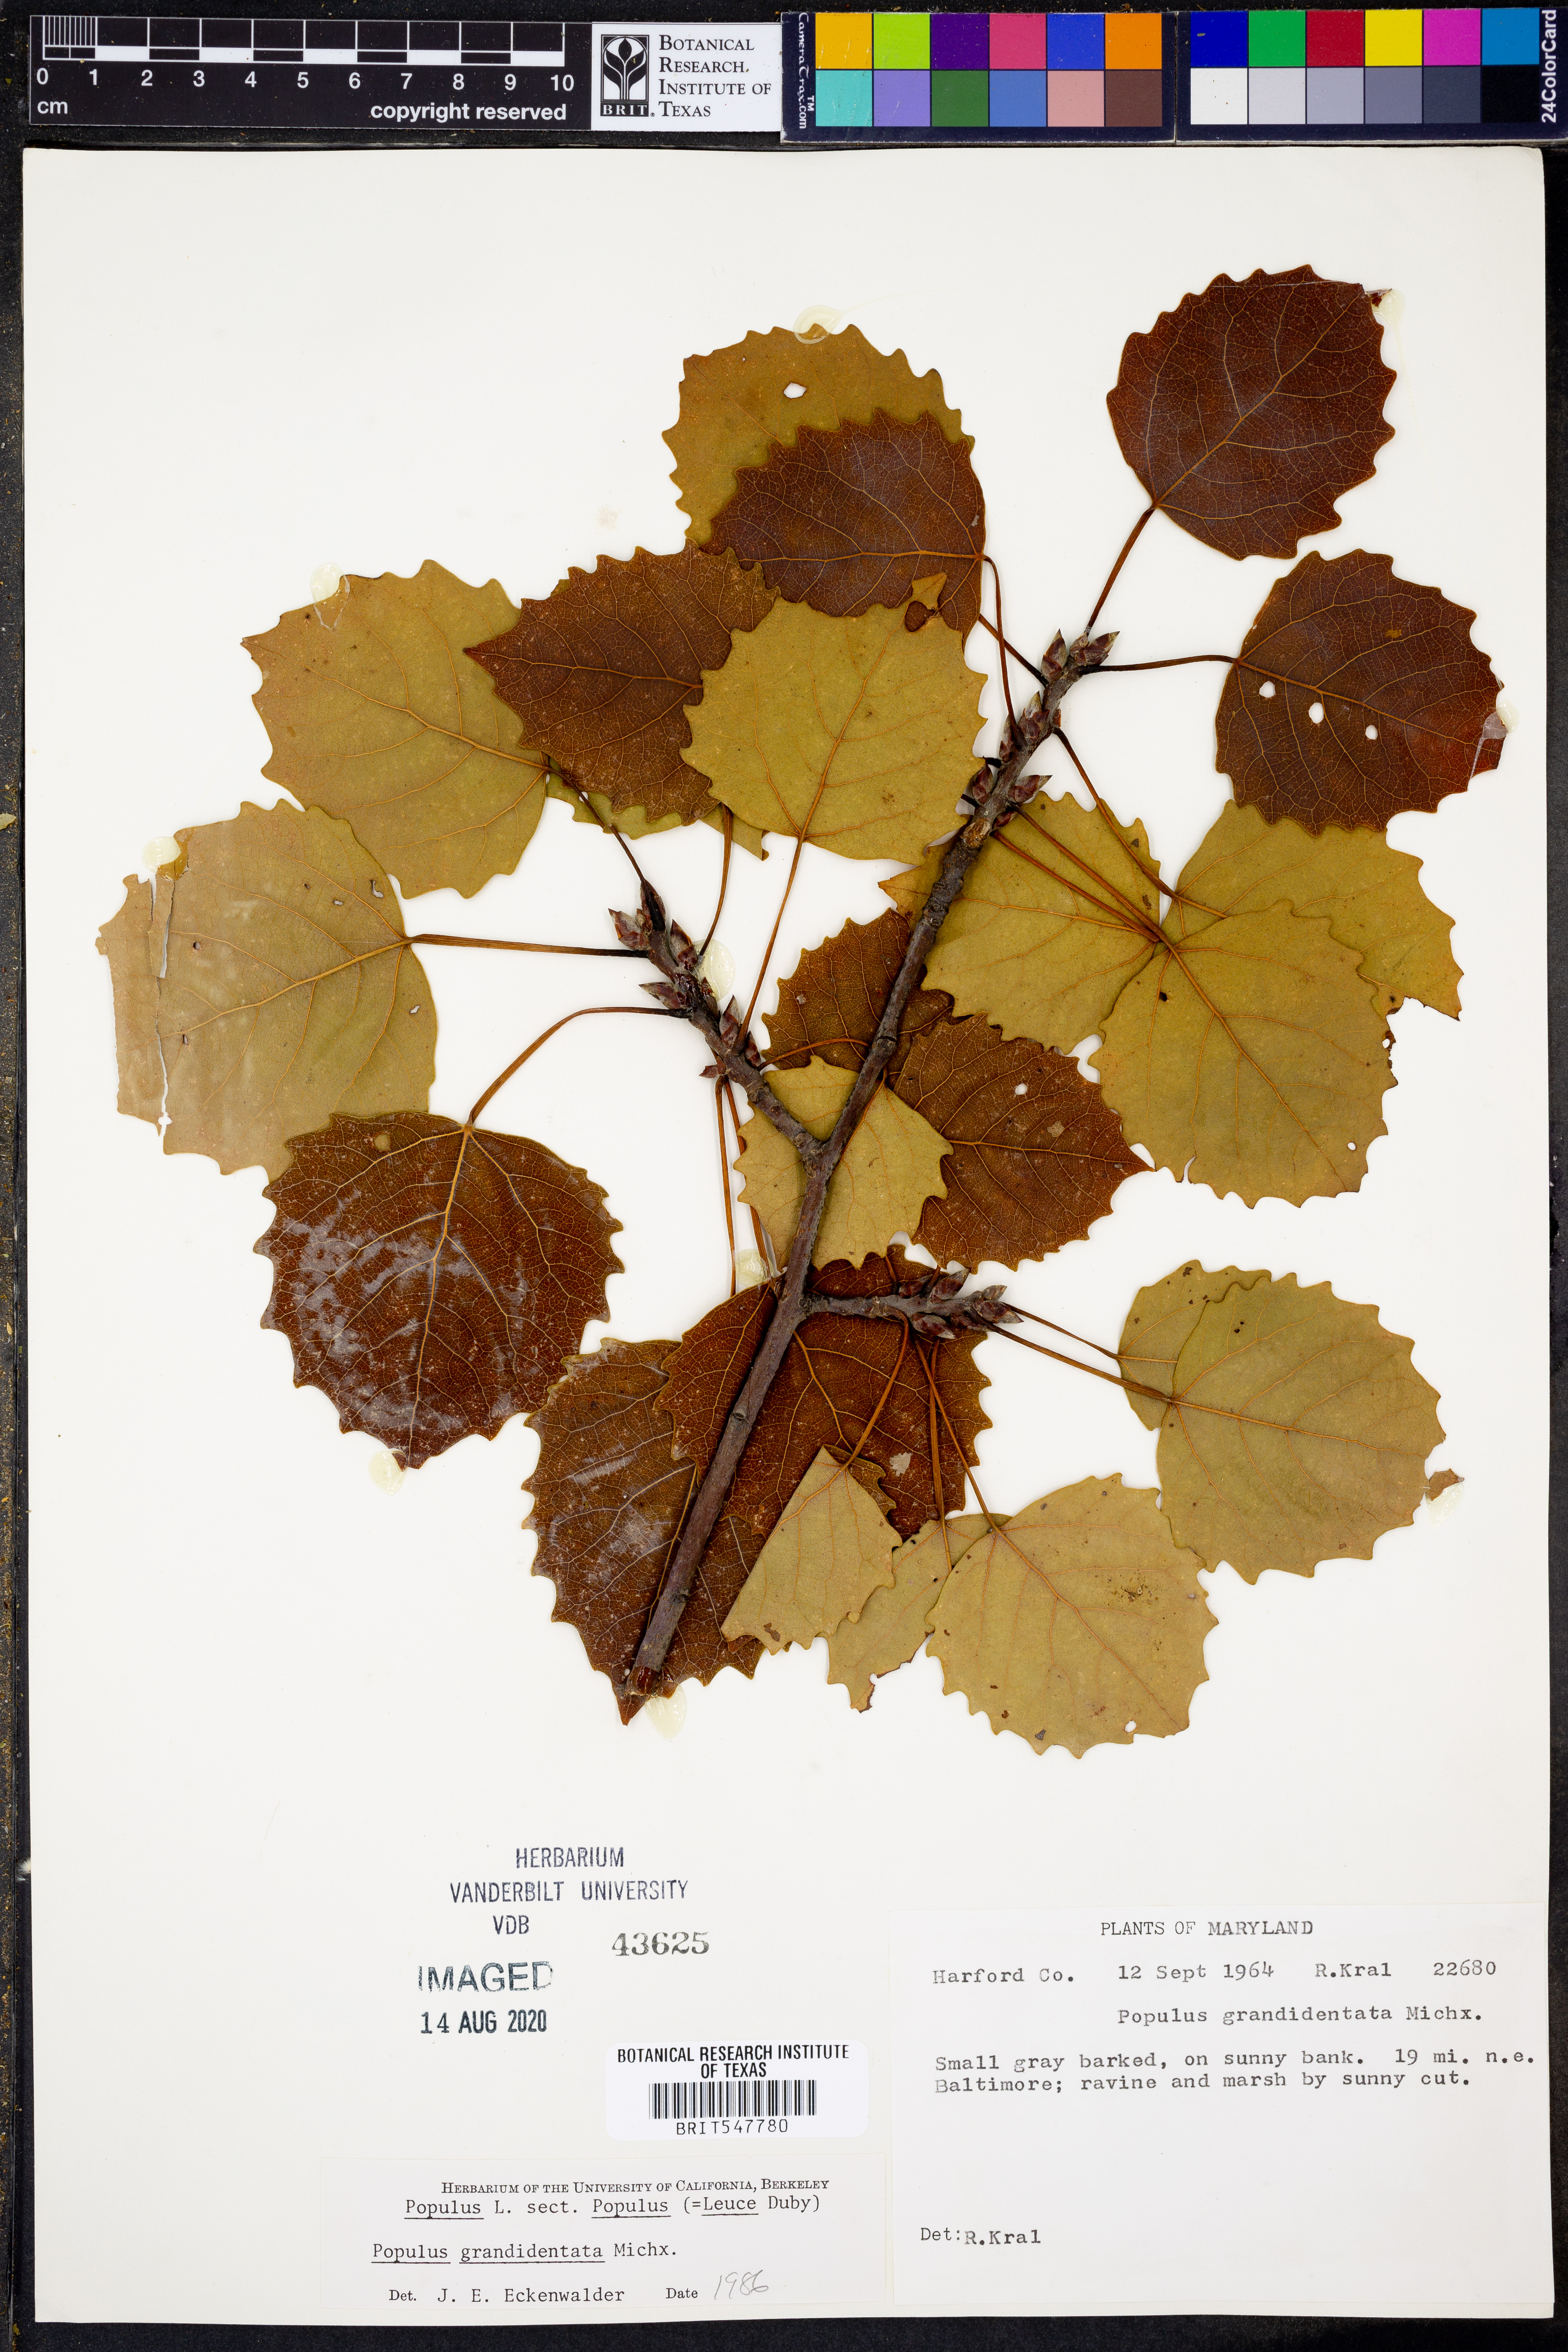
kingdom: Plantae
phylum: Tracheophyta
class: Magnoliopsida
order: Malpighiales
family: Salicaceae
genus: Populus
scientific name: Populus grandidentata
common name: Bigtooth aspen
